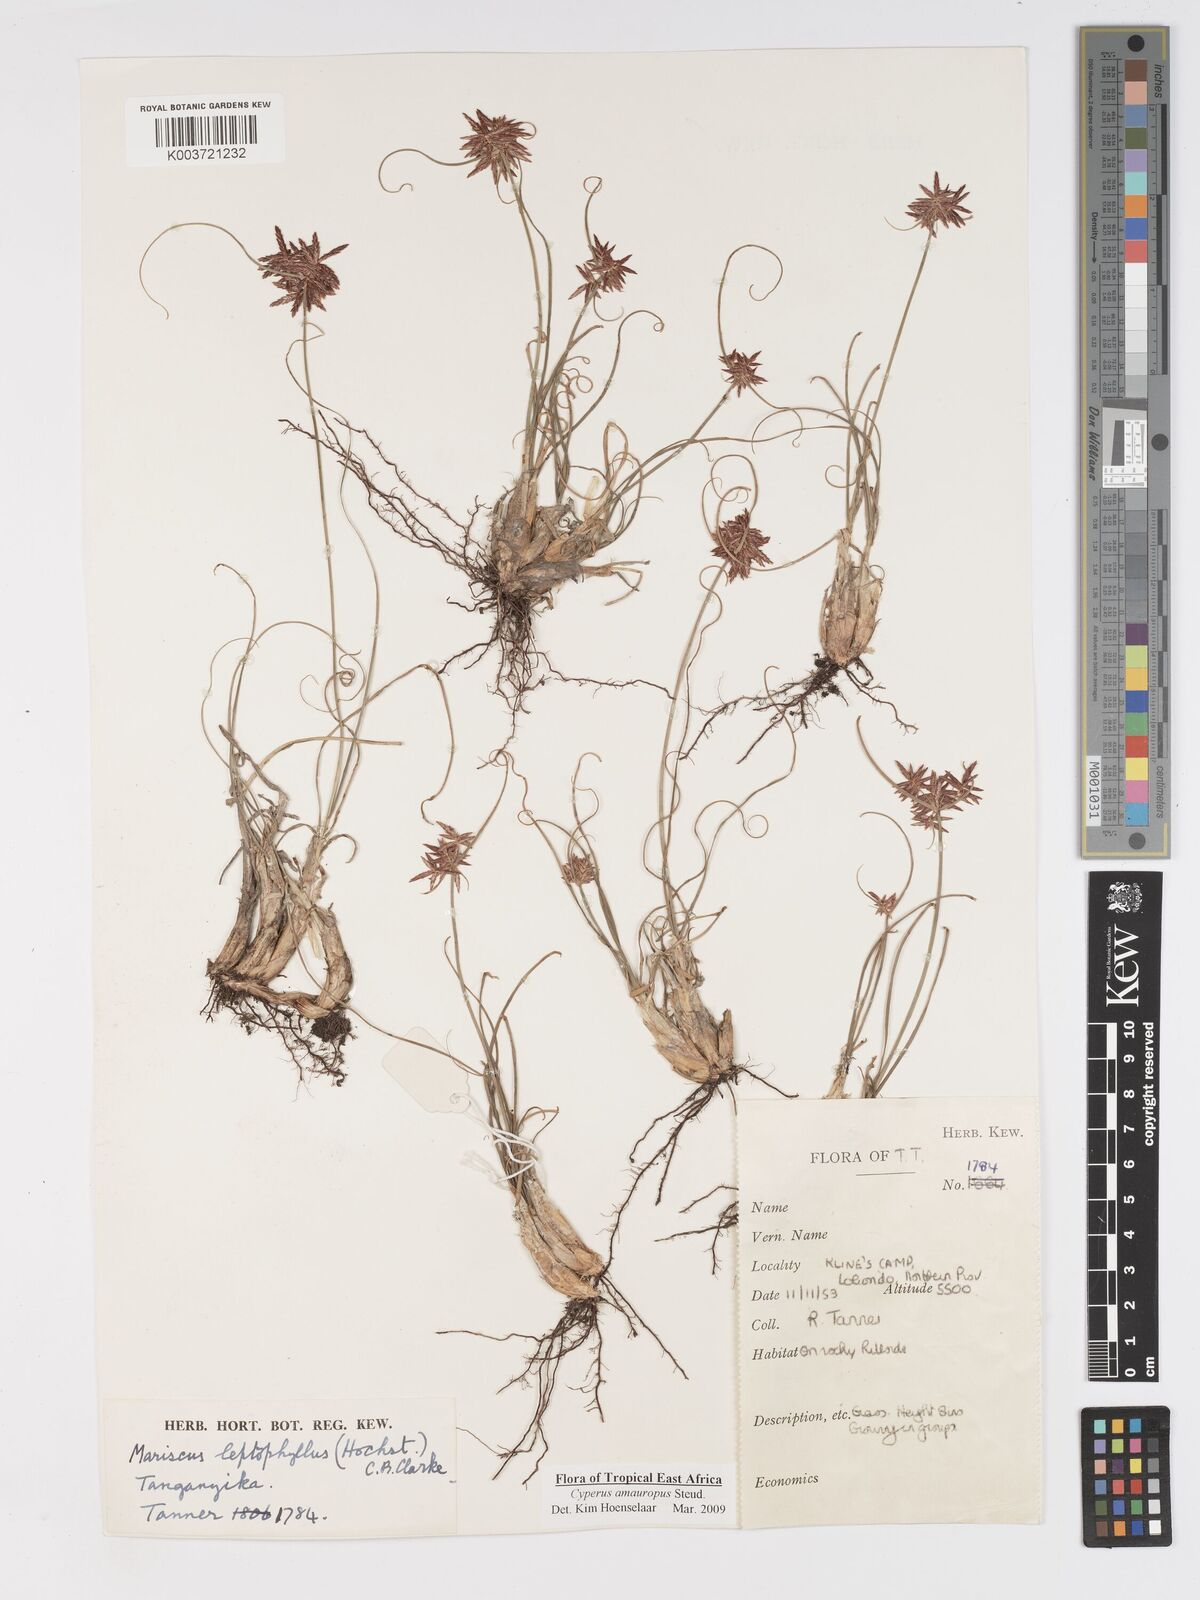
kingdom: Plantae
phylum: Tracheophyta
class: Liliopsida
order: Poales
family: Cyperaceae
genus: Cyperus
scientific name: Cyperus amauropus
